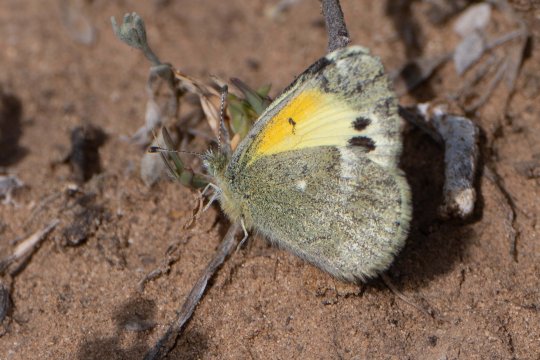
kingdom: Animalia
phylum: Arthropoda
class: Insecta
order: Lepidoptera
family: Pieridae
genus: Nathalis
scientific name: Nathalis iole
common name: Dainty Sulphur
